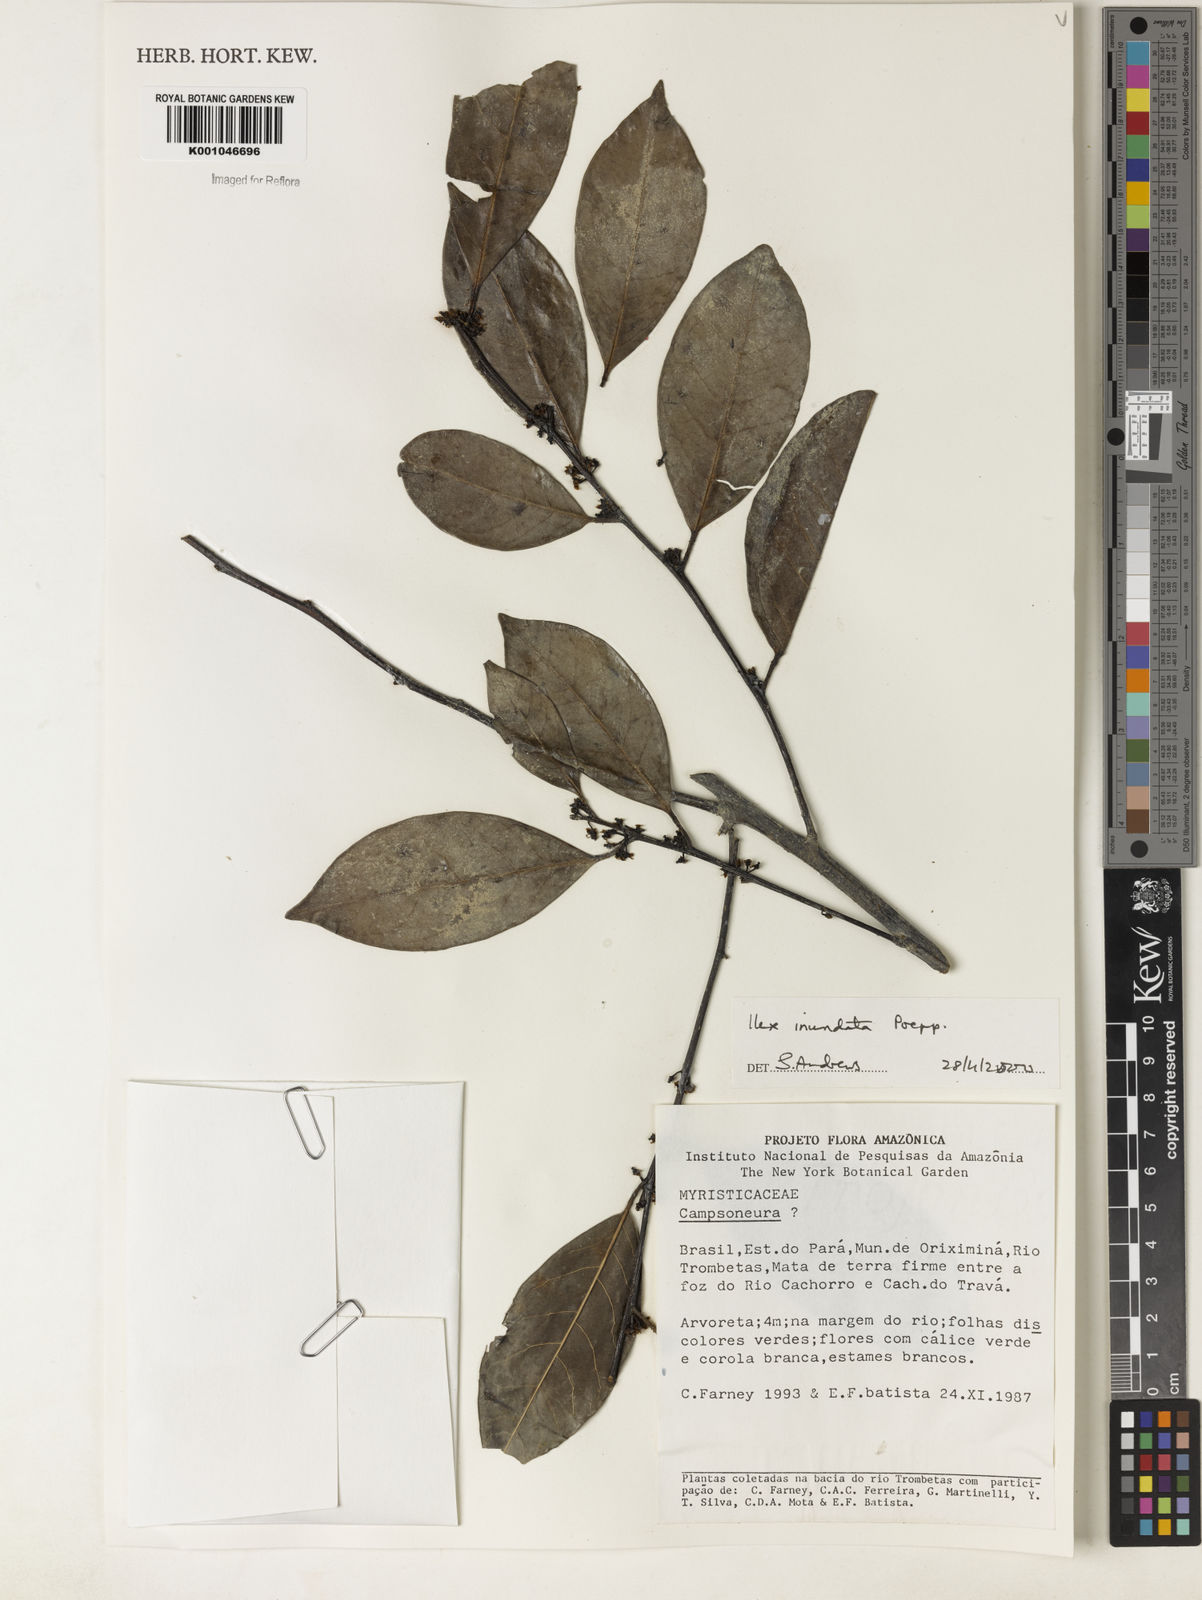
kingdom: Plantae
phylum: Tracheophyta
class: Magnoliopsida
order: Aquifoliales
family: Aquifoliaceae
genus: Ilex
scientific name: Ilex inundata
